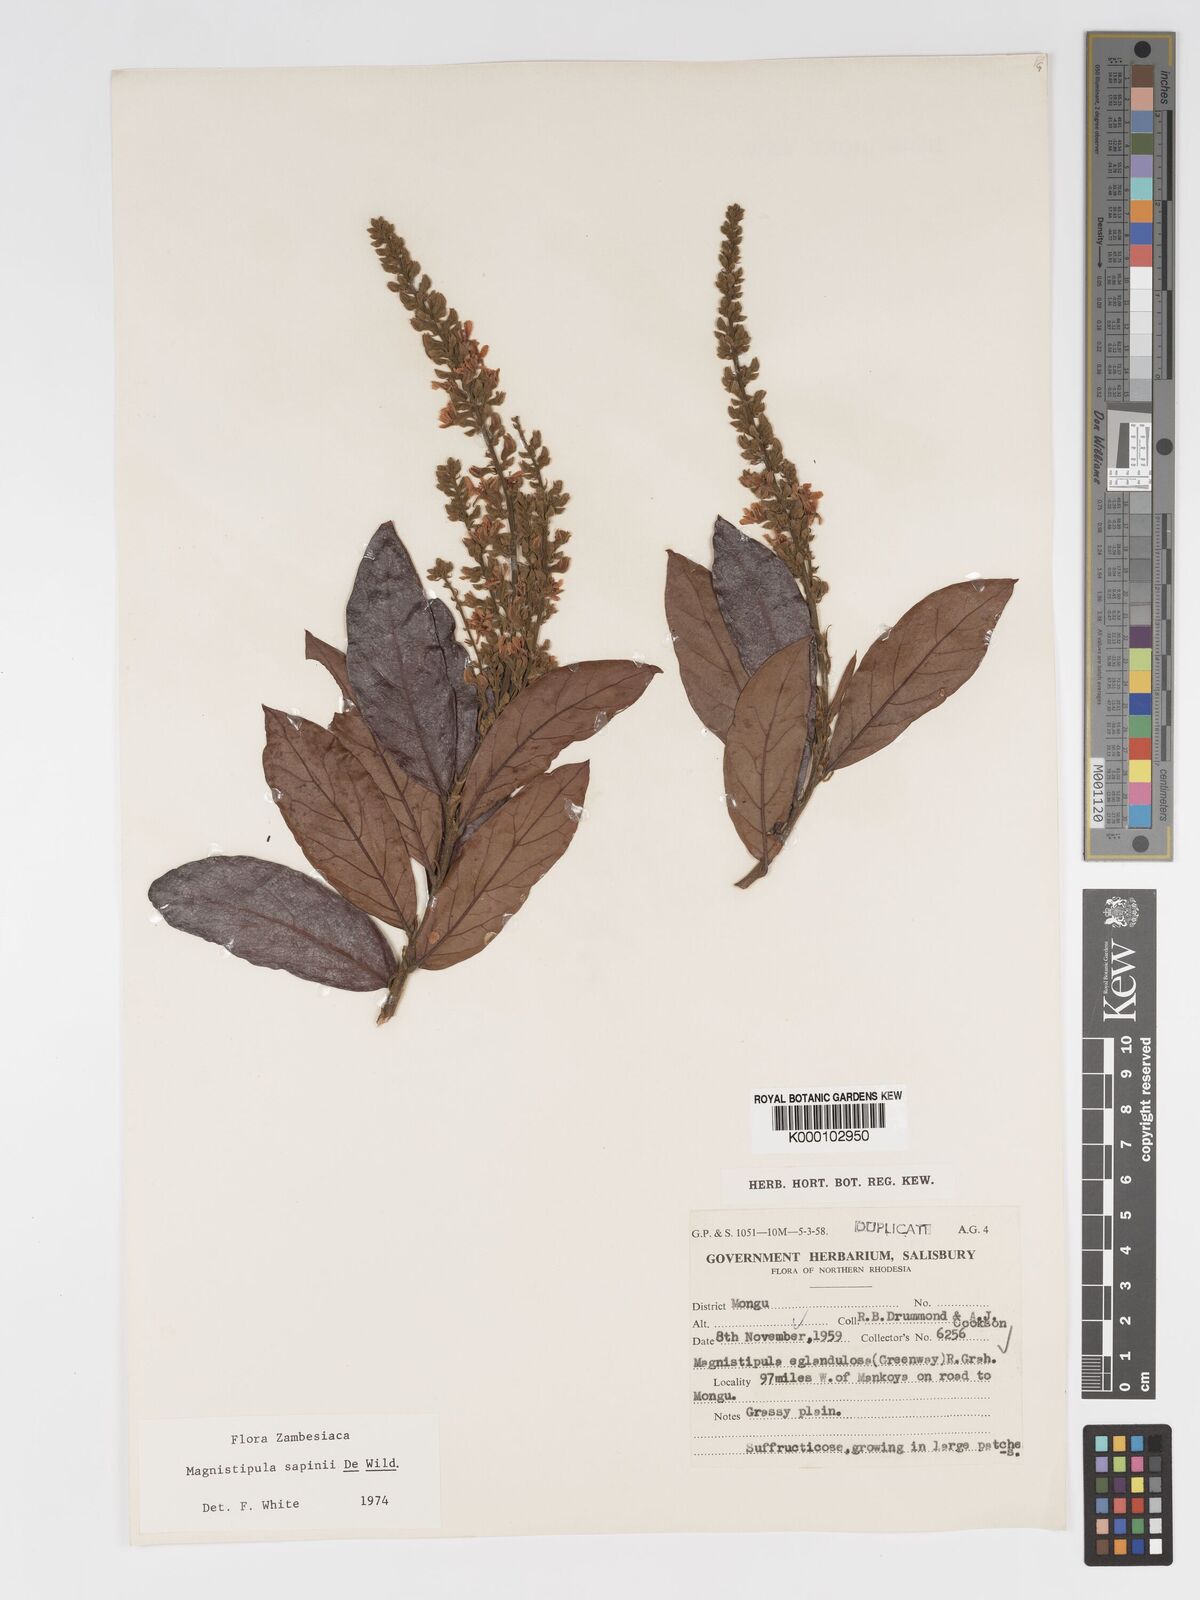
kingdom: Plantae
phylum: Tracheophyta
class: Magnoliopsida
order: Malpighiales
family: Chrysobalanaceae
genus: Magnistipula
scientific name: Magnistipula sapinii
